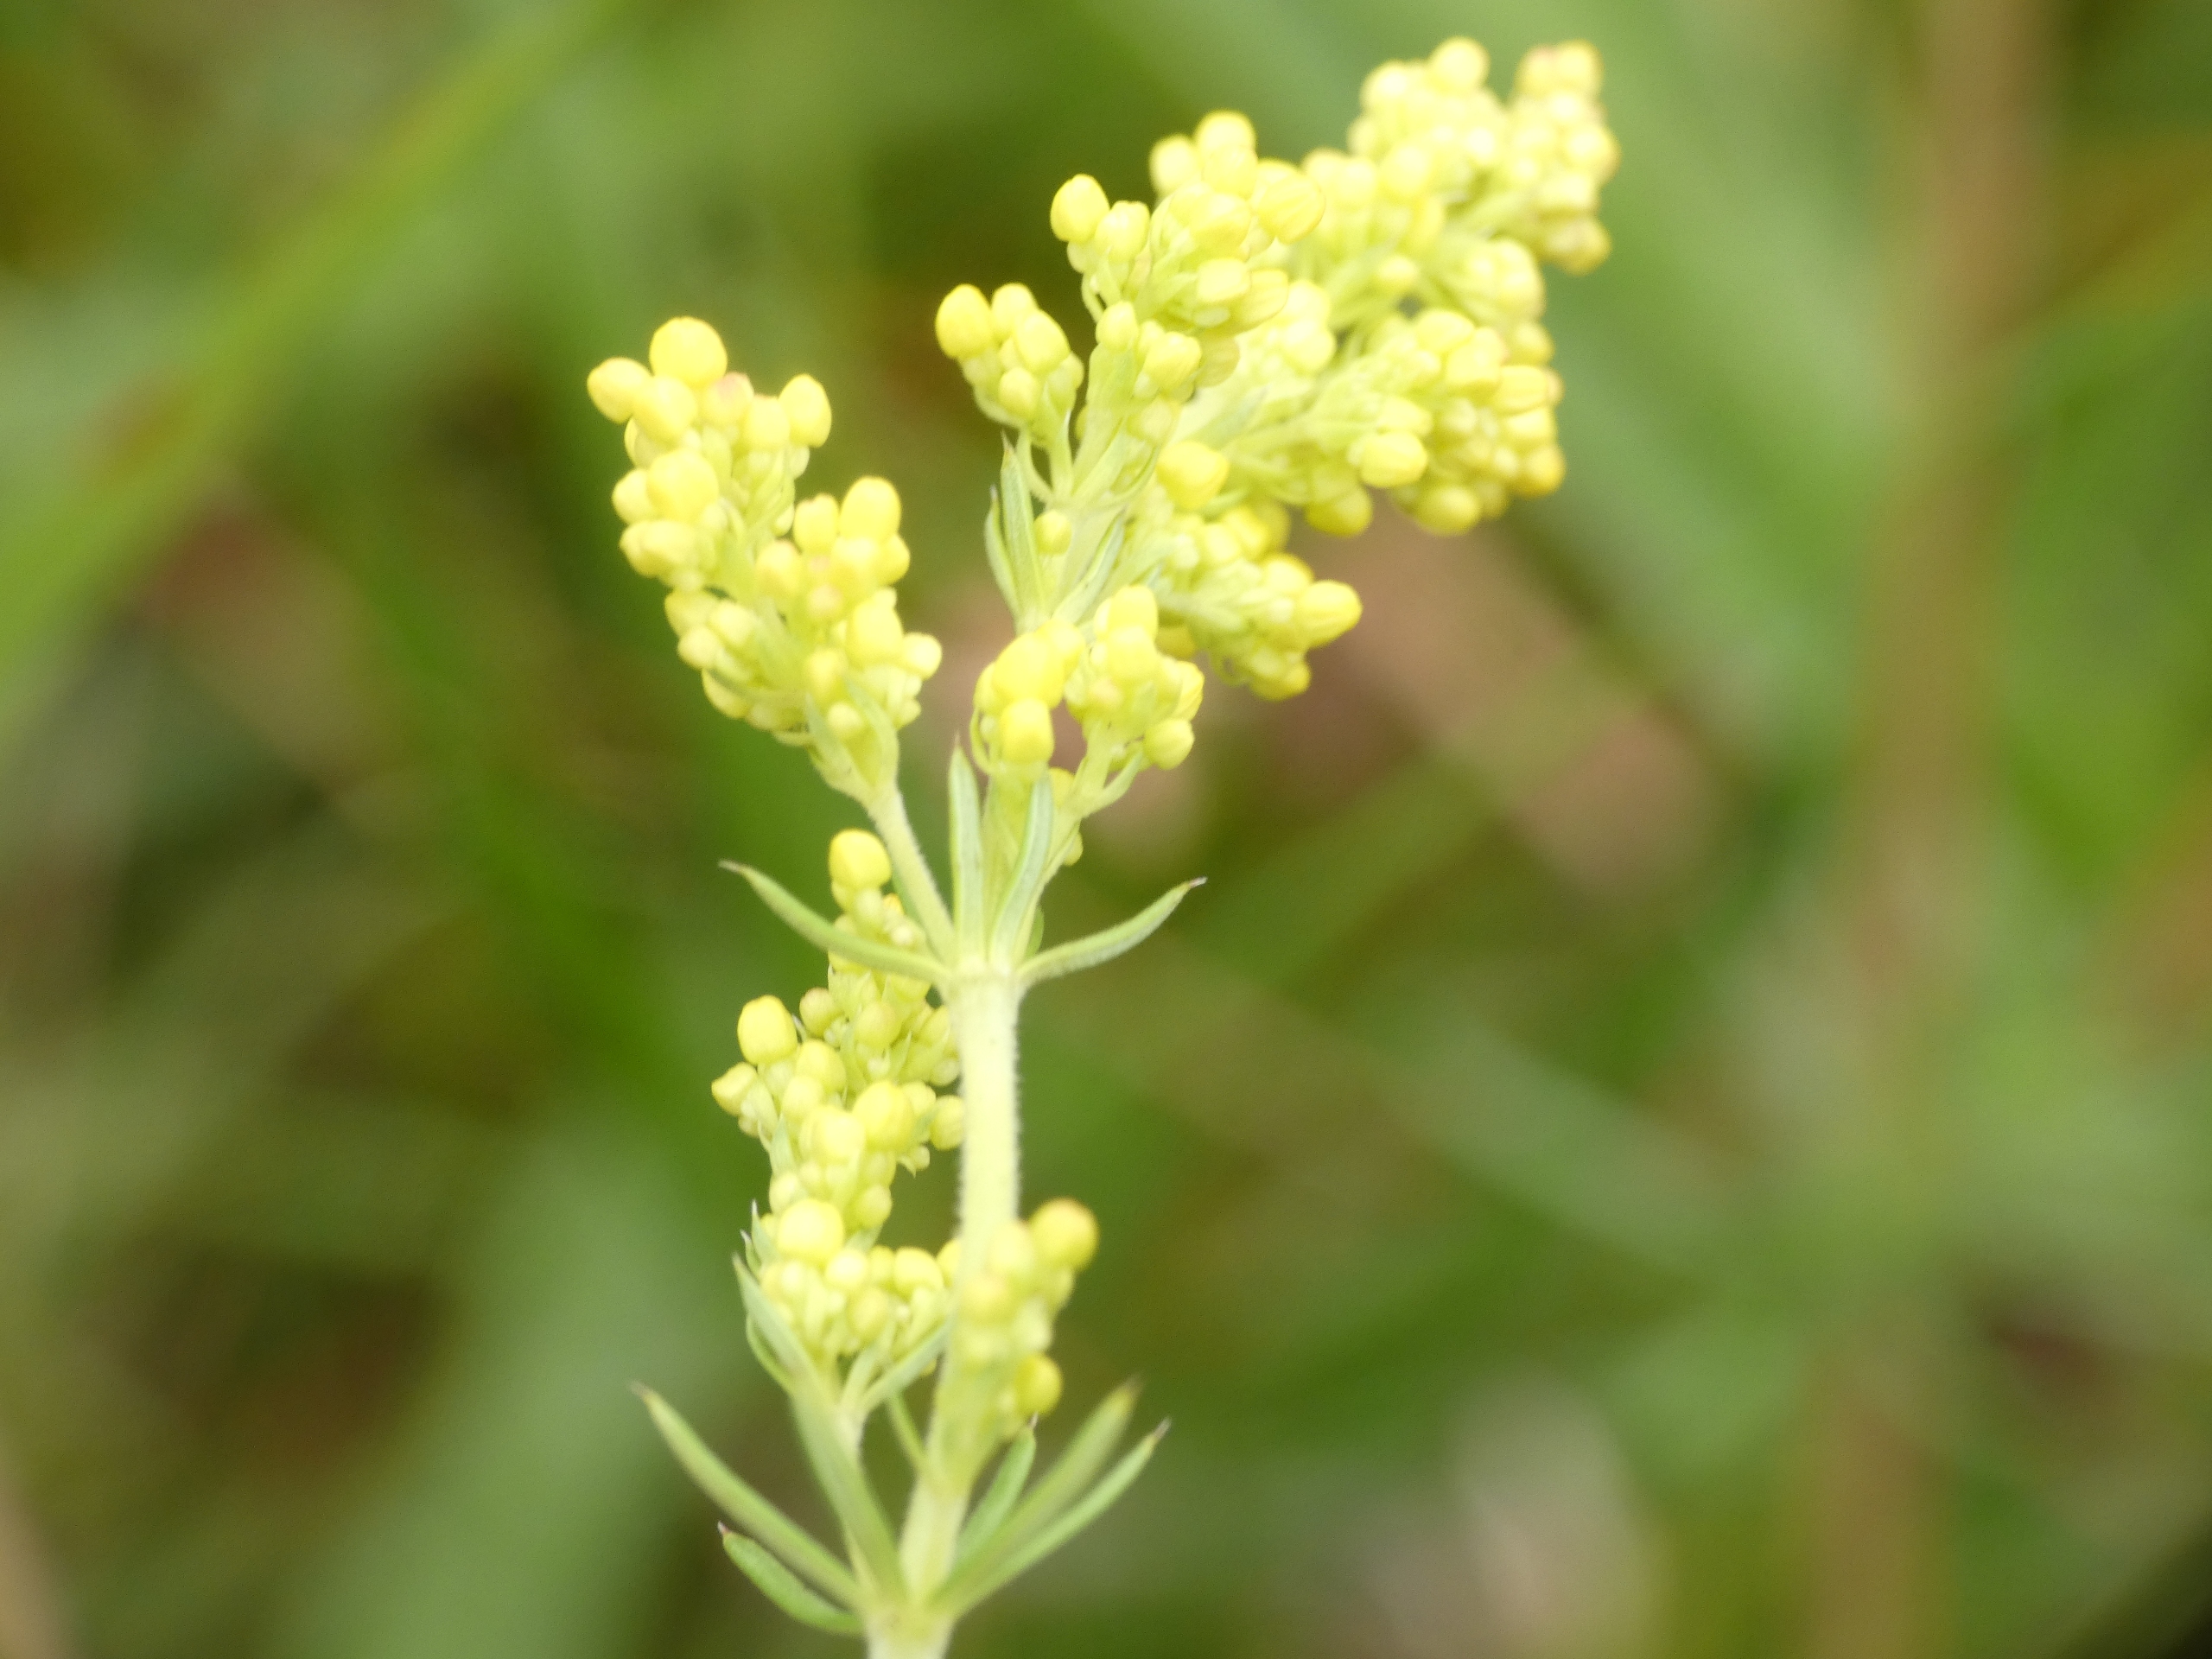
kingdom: Plantae
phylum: Tracheophyta
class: Magnoliopsida
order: Gentianales
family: Rubiaceae
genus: Galium
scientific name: Galium verum
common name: Gul snerre
